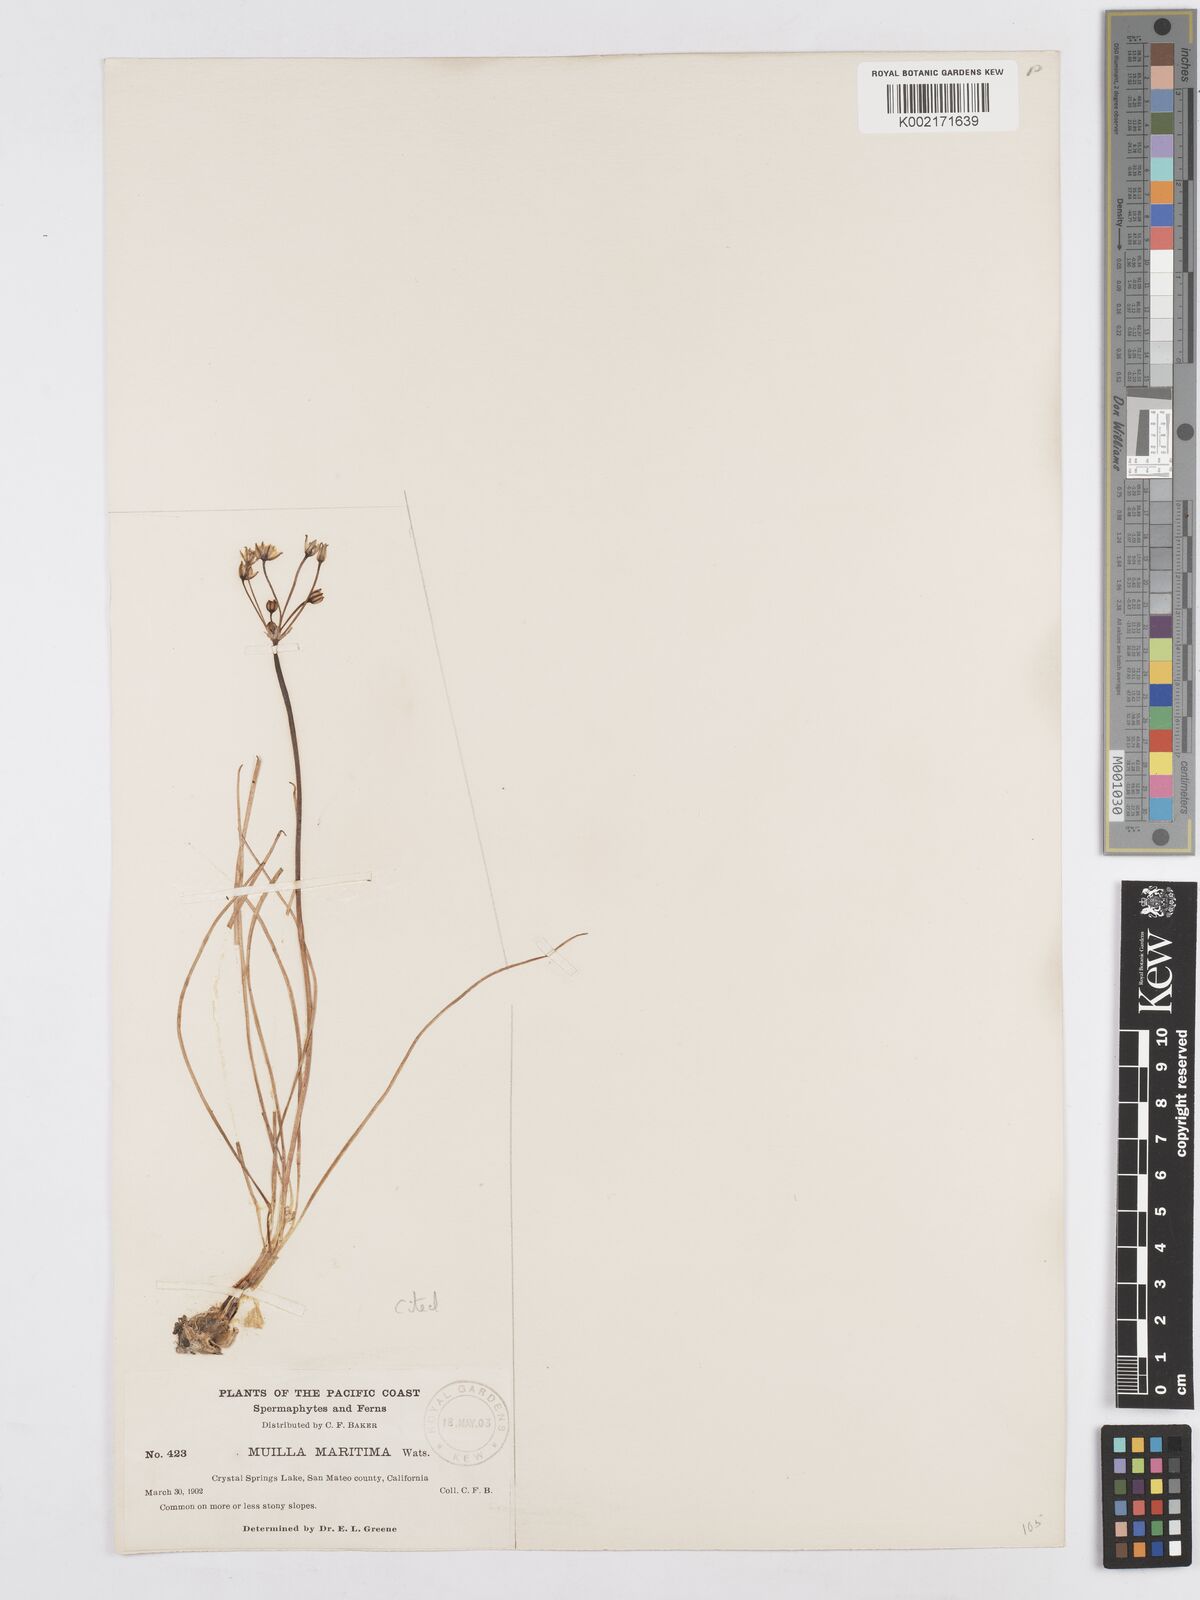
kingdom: Plantae
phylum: Tracheophyta
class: Liliopsida
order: Asparagales
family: Asparagaceae
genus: Muilla
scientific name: Muilla maritima
